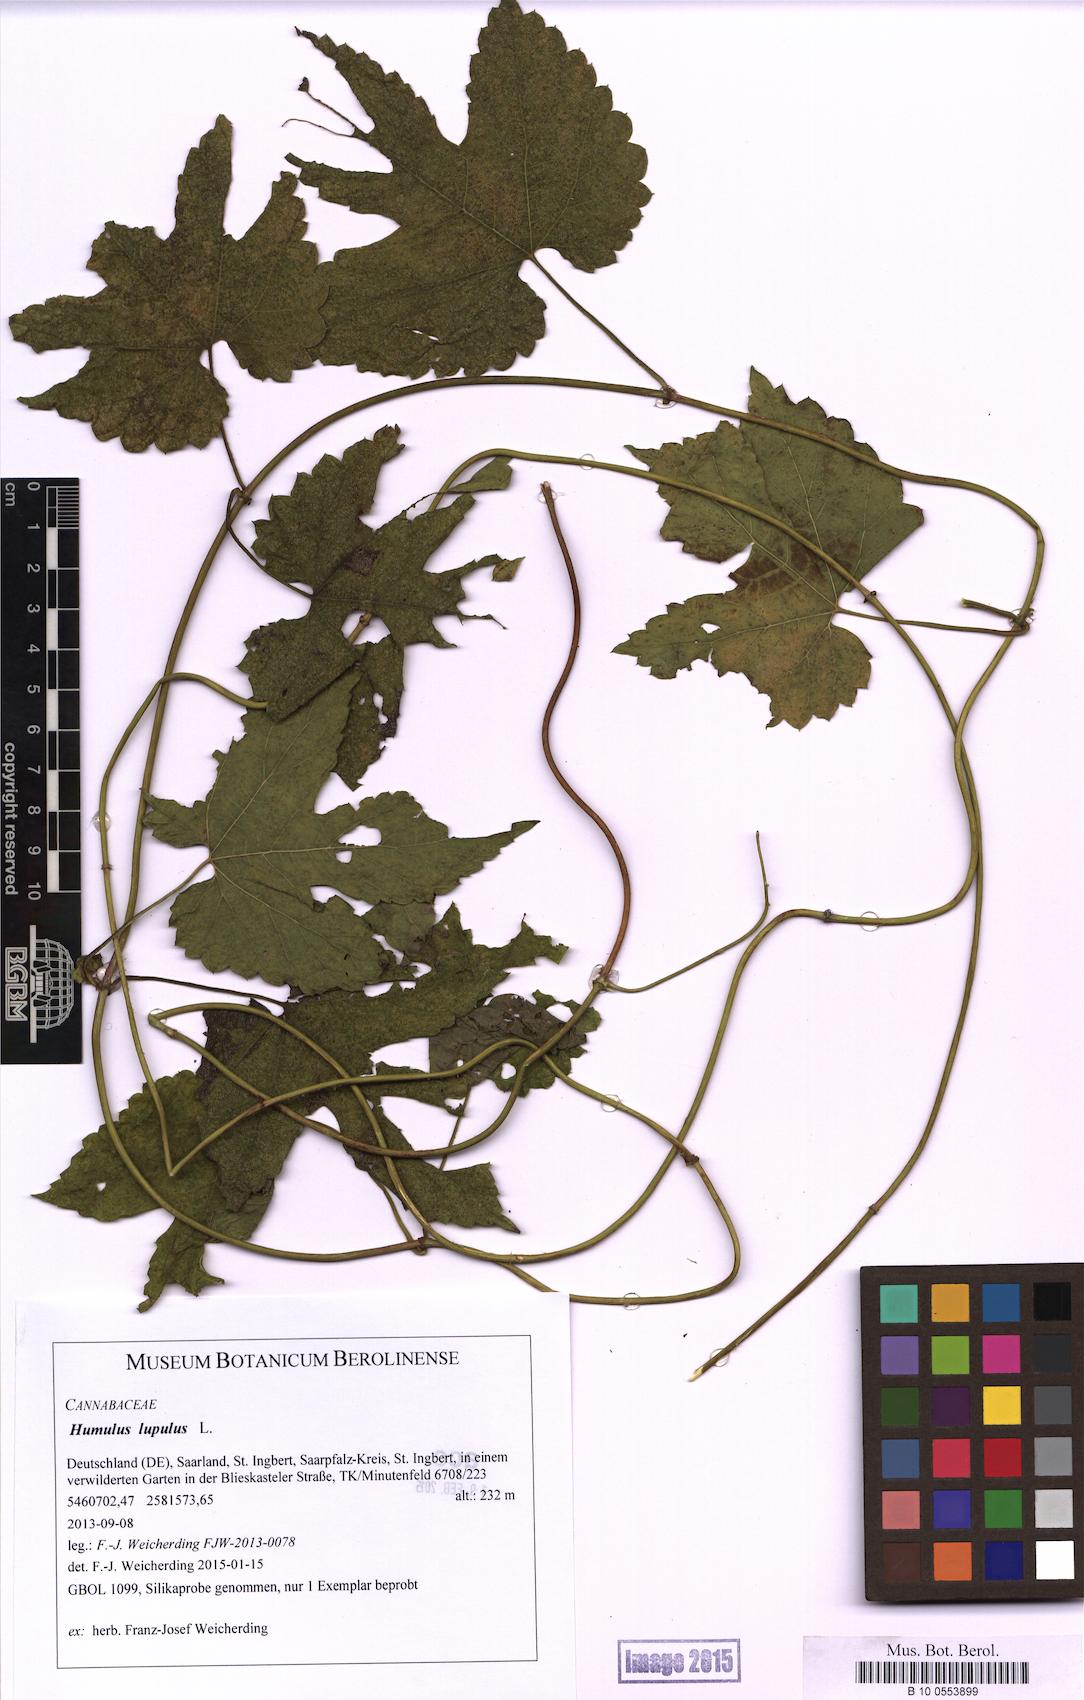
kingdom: Plantae
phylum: Tracheophyta
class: Magnoliopsida
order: Rosales
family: Cannabaceae
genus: Humulus
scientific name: Humulus lupulus
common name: Hop
